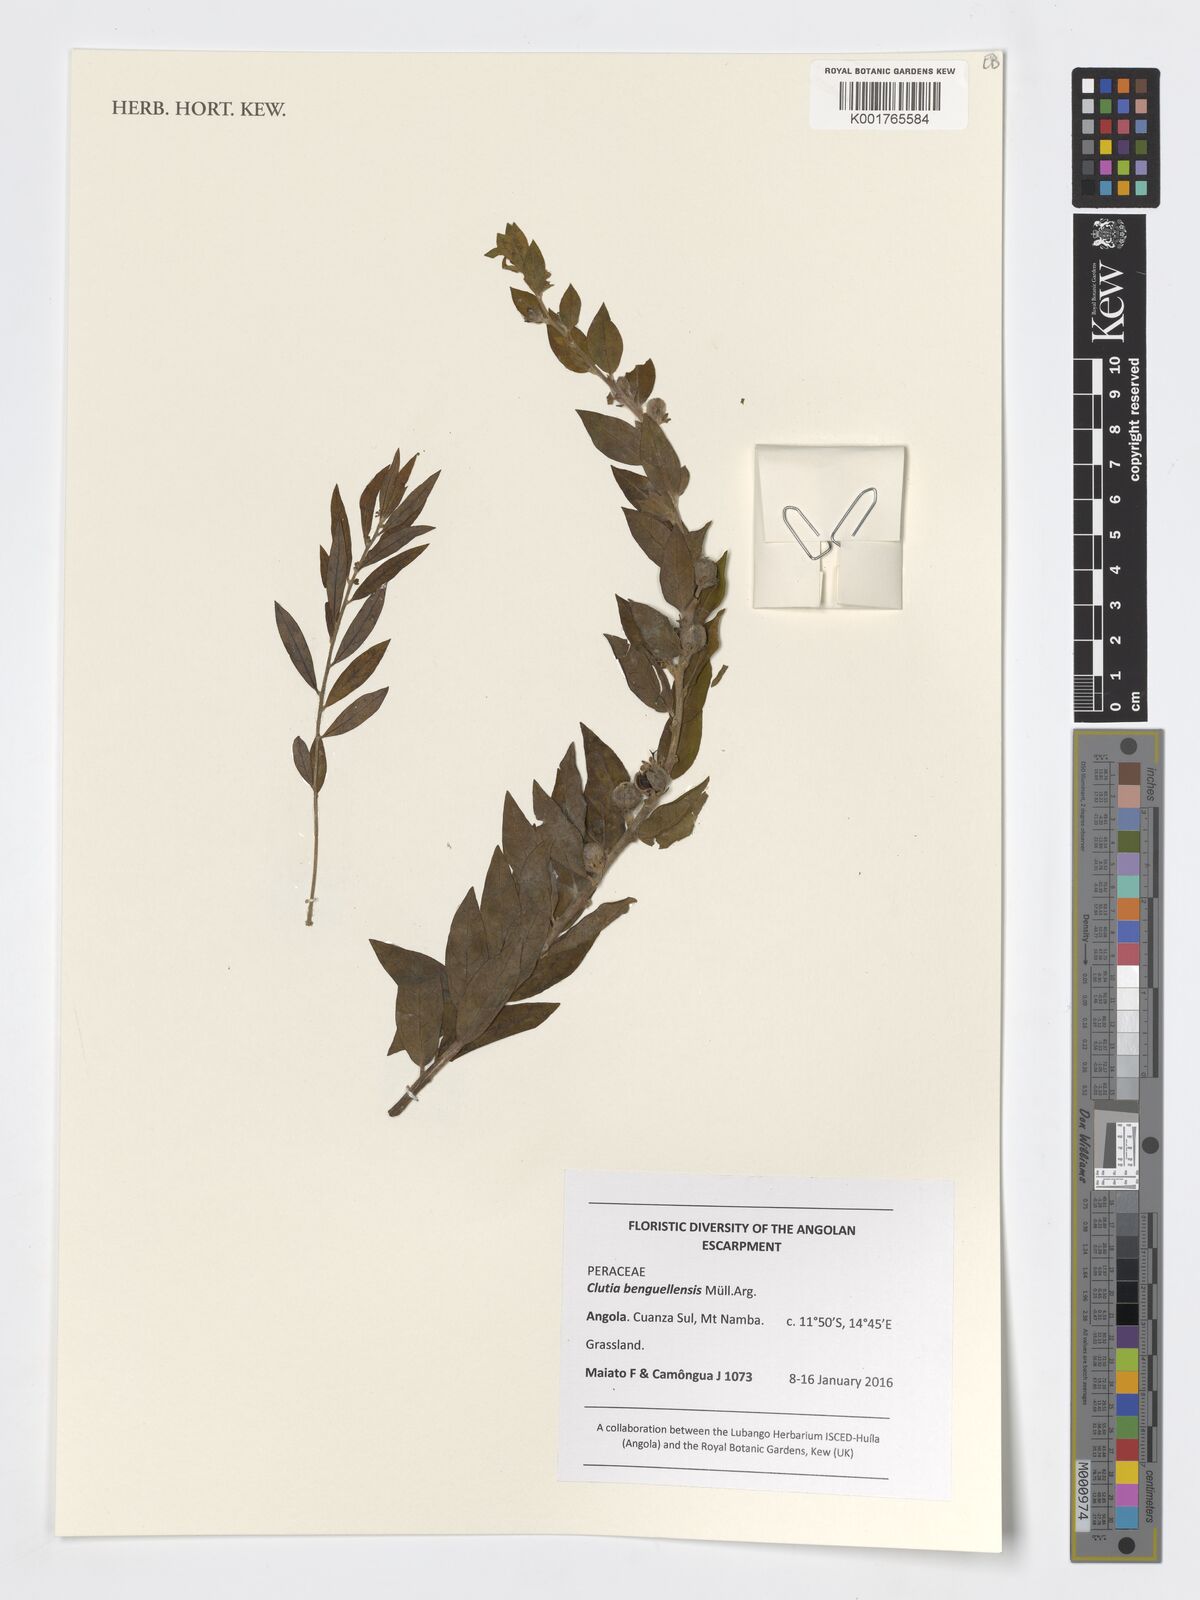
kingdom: Plantae
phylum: Tracheophyta
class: Magnoliopsida
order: Malpighiales
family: Peraceae
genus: Clutia
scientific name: Clutia benguelensis
